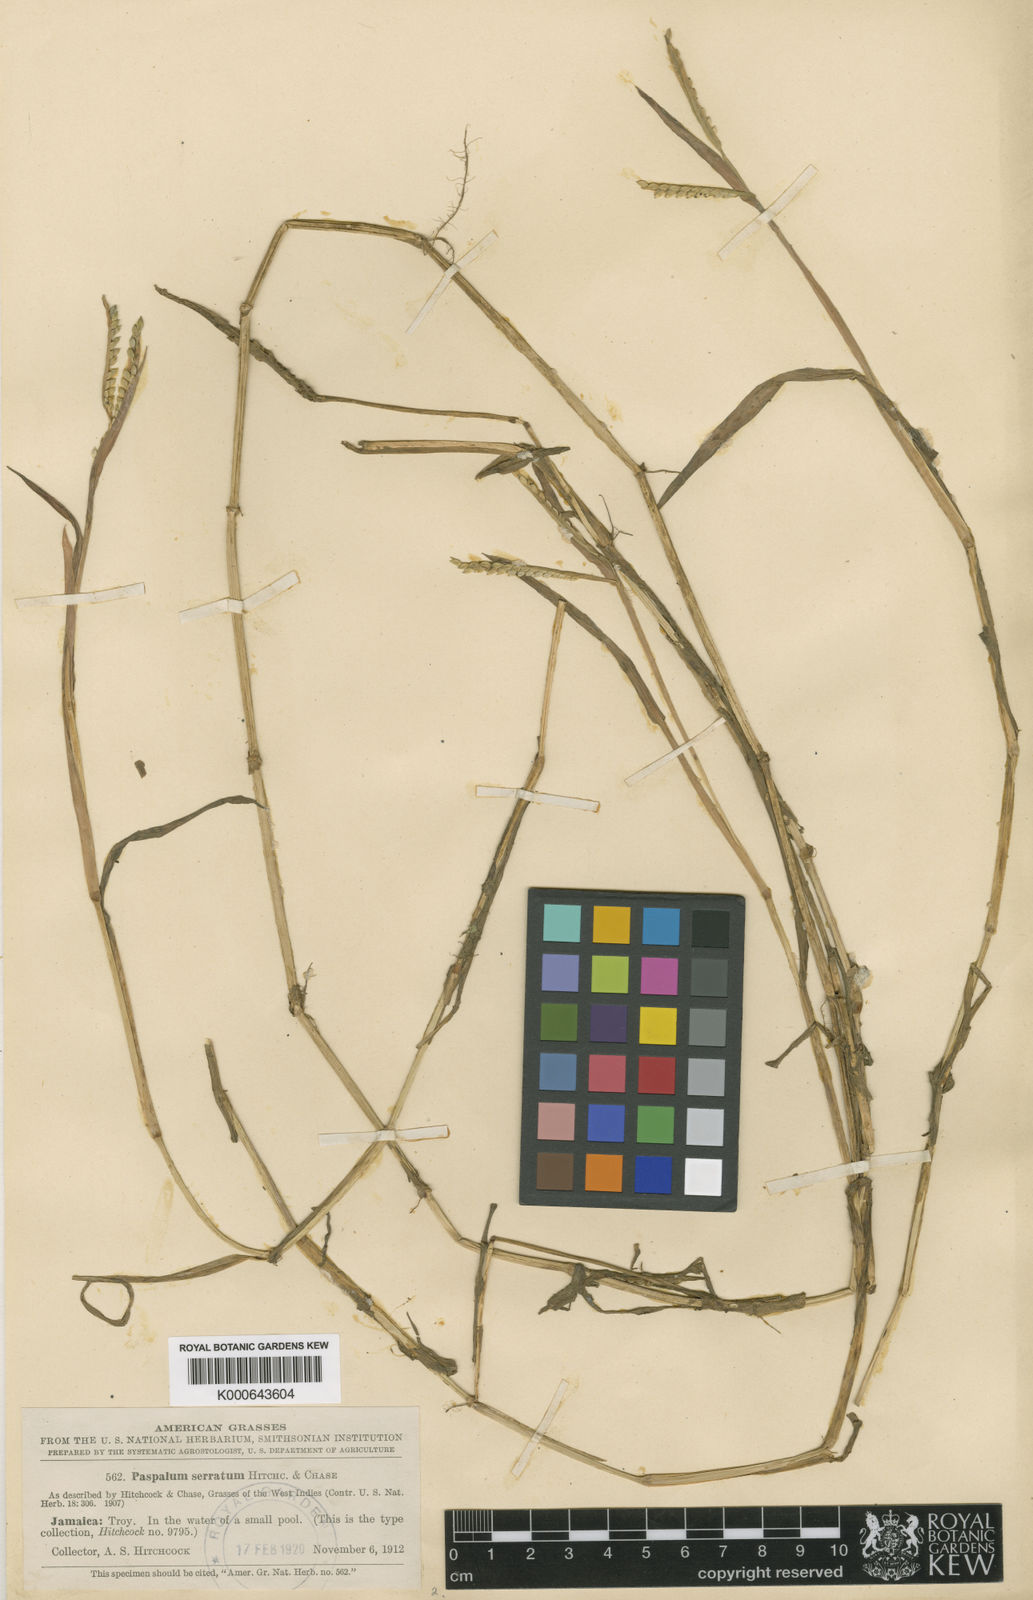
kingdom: Plantae
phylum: Tracheophyta
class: Liliopsida
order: Poales
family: Poaceae
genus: Paspalum
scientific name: Paspalum acuminatum
